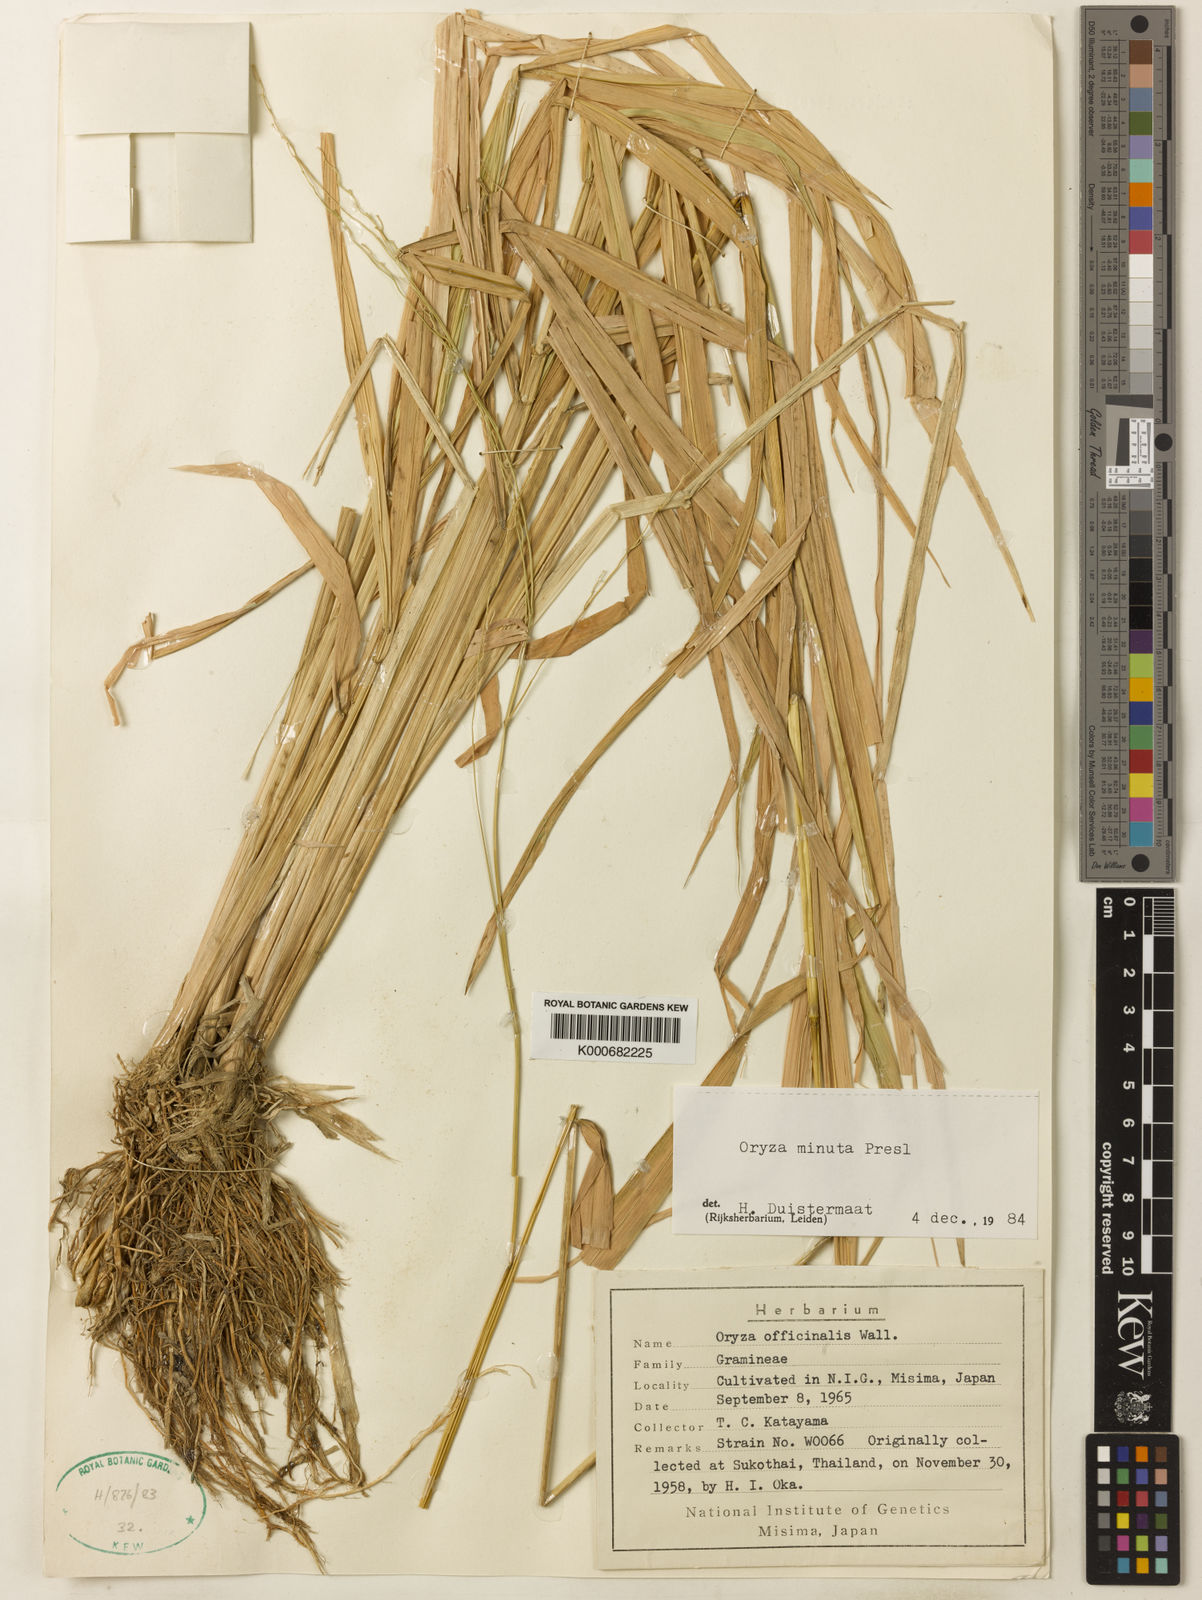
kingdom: Plantae
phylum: Tracheophyta
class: Liliopsida
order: Poales
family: Poaceae
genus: Oryza
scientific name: Oryza minuta
